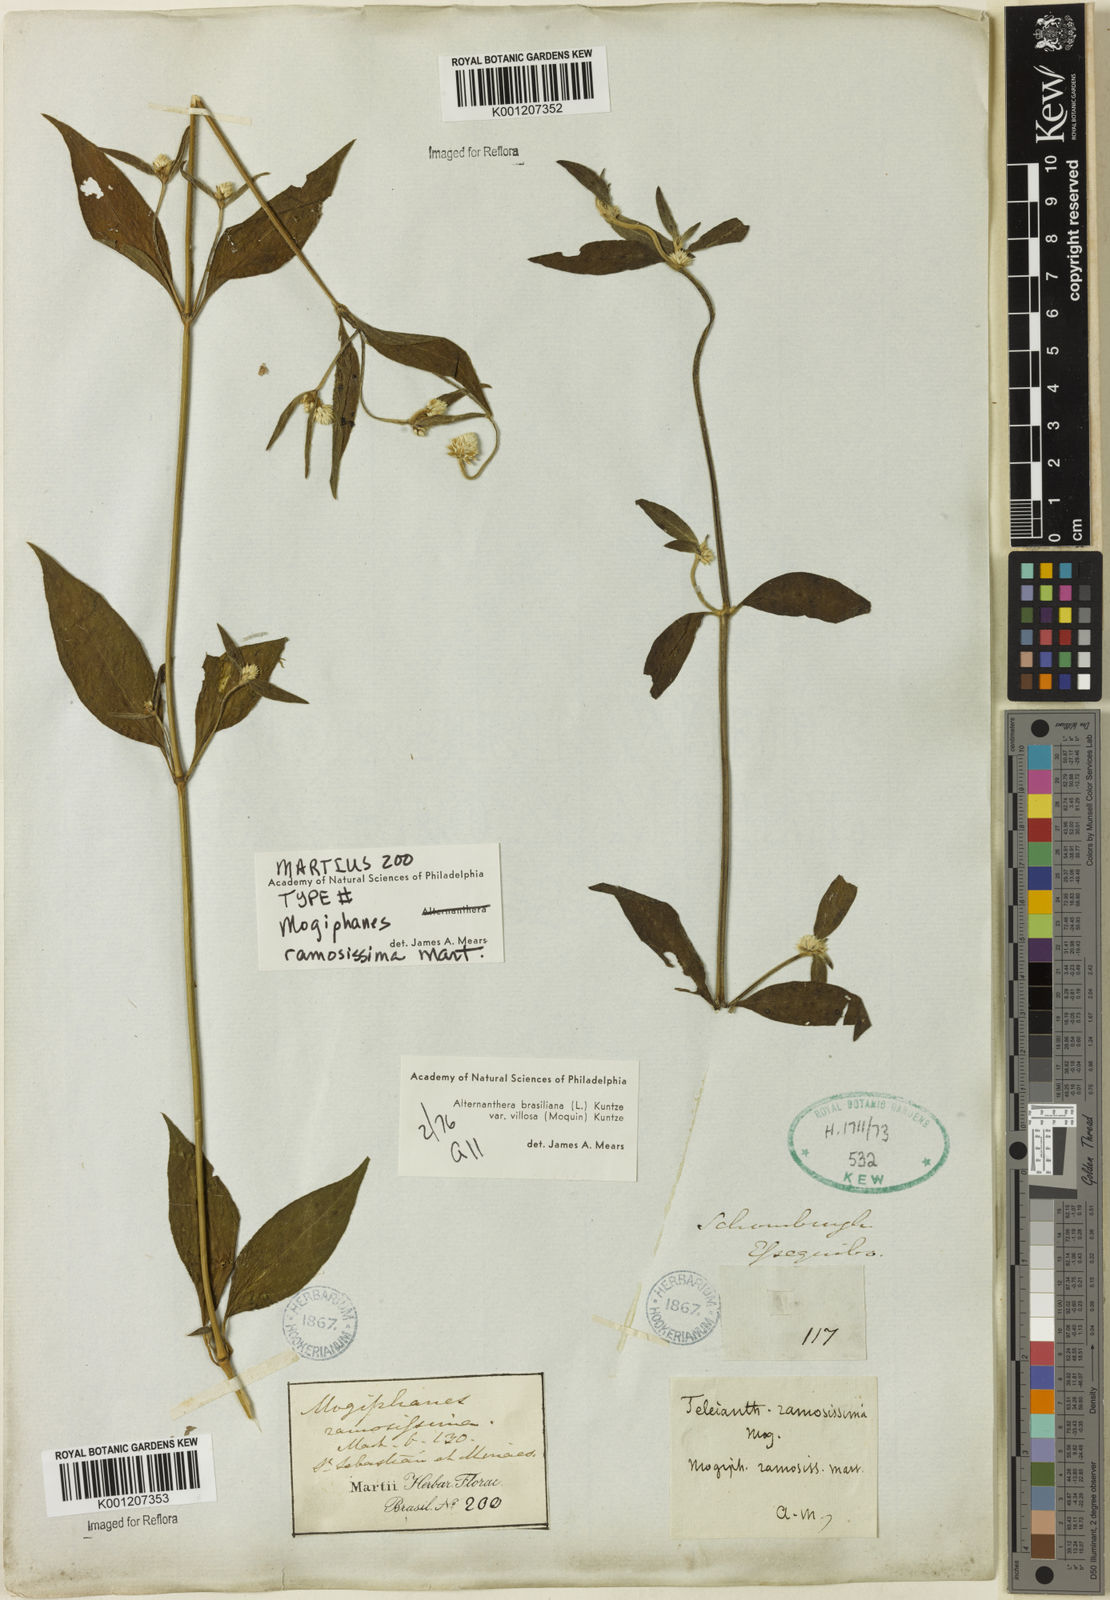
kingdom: Plantae
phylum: Tracheophyta
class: Magnoliopsida
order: Caryophyllales
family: Amaranthaceae
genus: Alternanthera
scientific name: Alternanthera ramosissima
